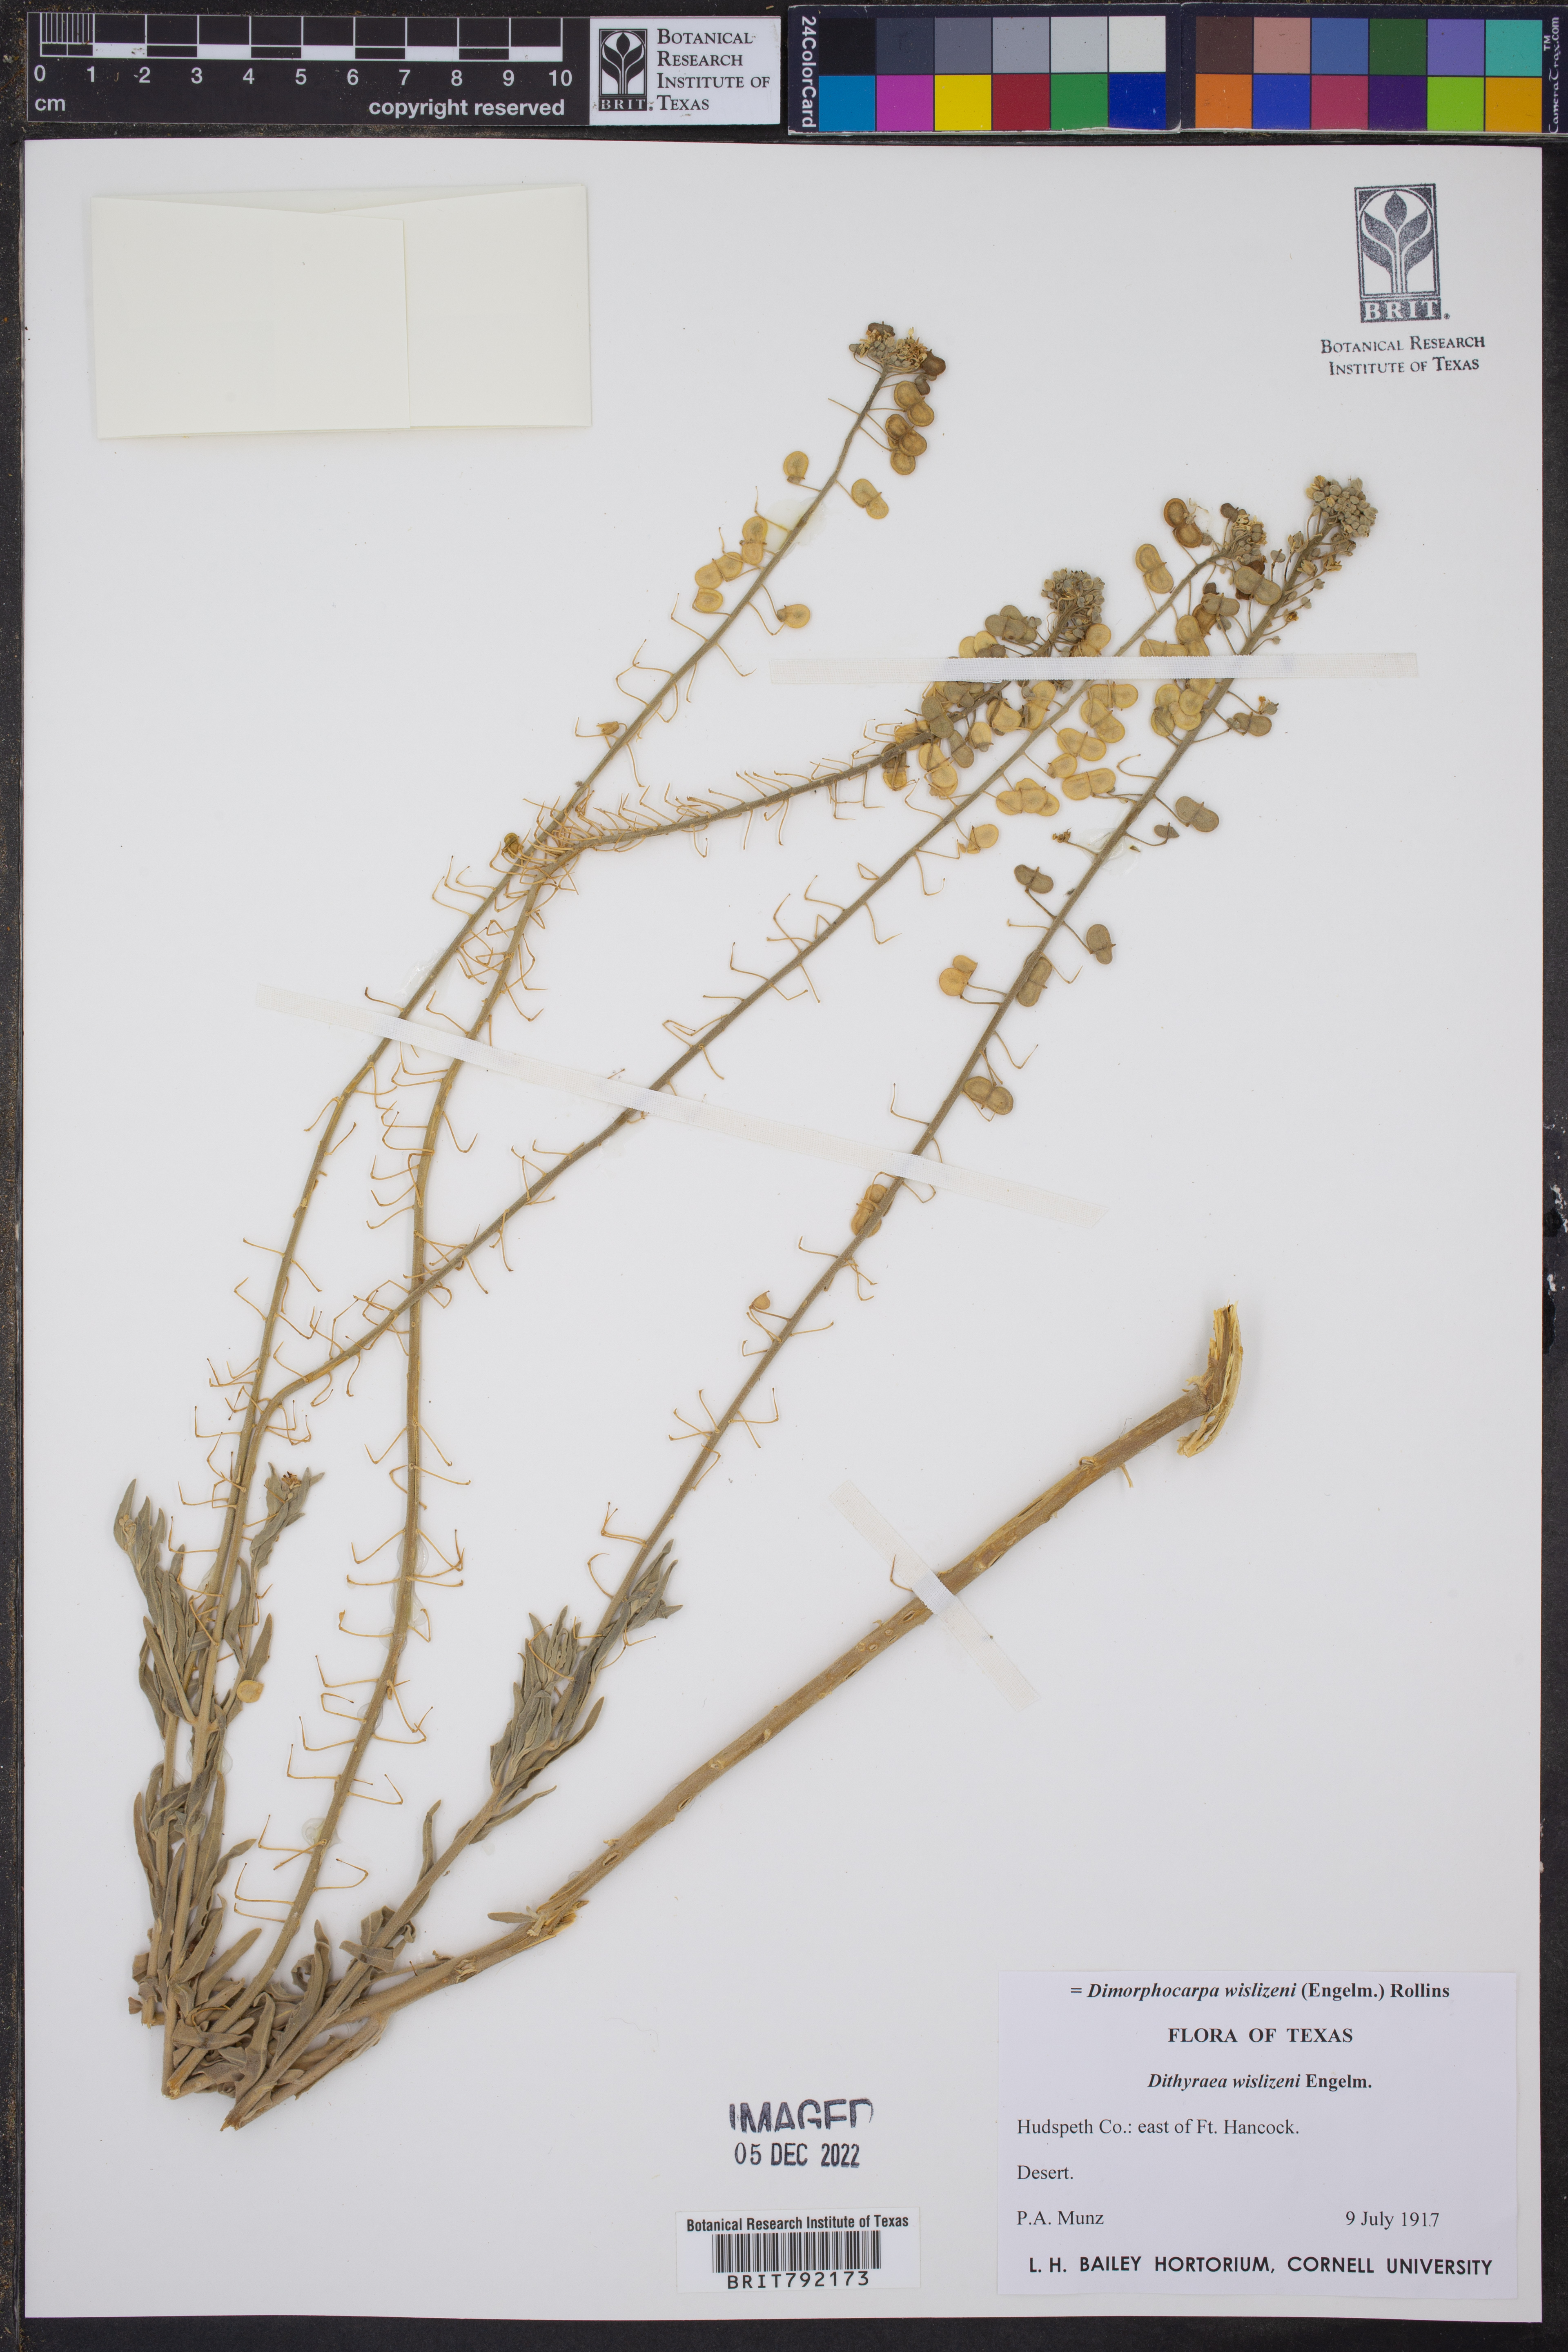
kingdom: Plantae
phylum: Tracheophyta
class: Magnoliopsida
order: Brassicales
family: Brassicaceae
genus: Dimorphocarpa
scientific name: Dimorphocarpa wislizenii
